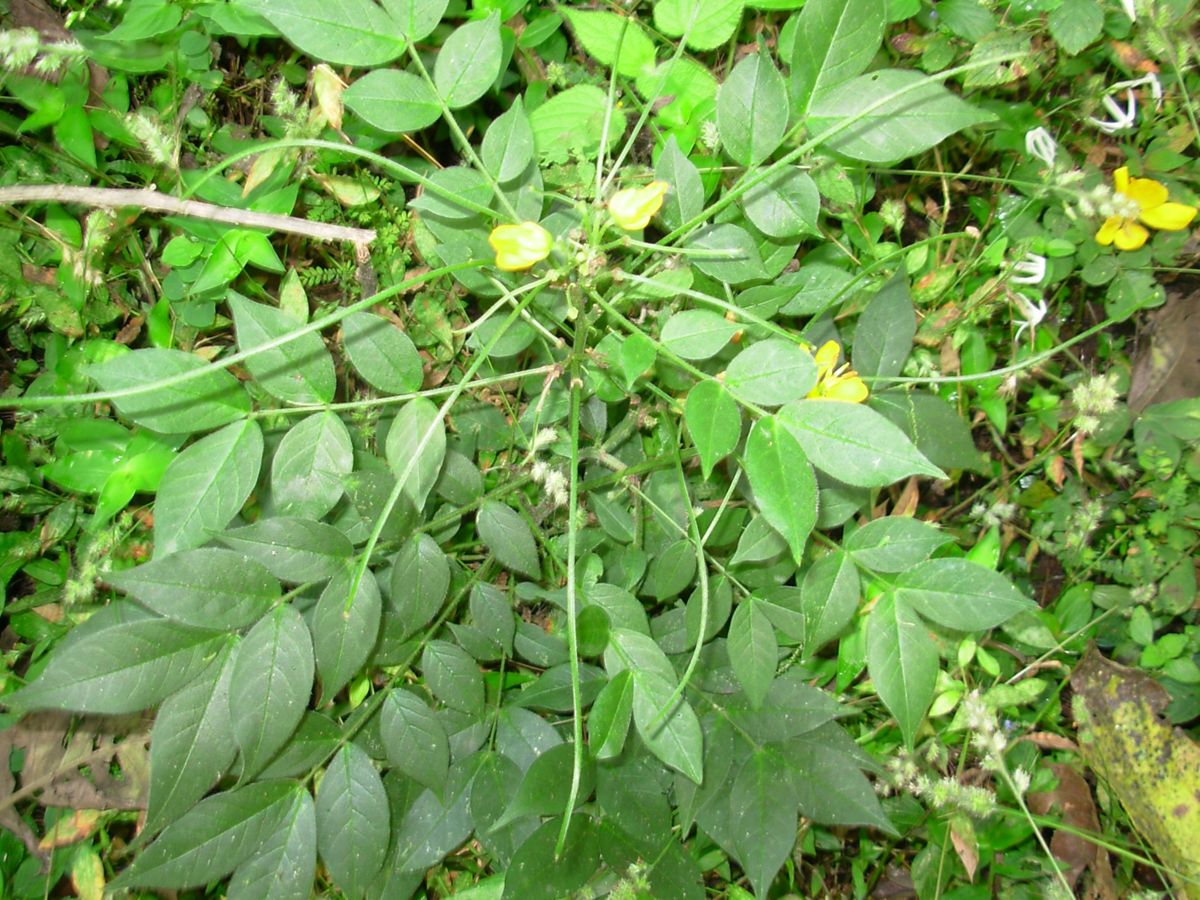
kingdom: Plantae
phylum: Tracheophyta
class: Magnoliopsida
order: Fabales
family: Fabaceae
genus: Senna
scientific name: Senna hirsuta
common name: Woolly senna
